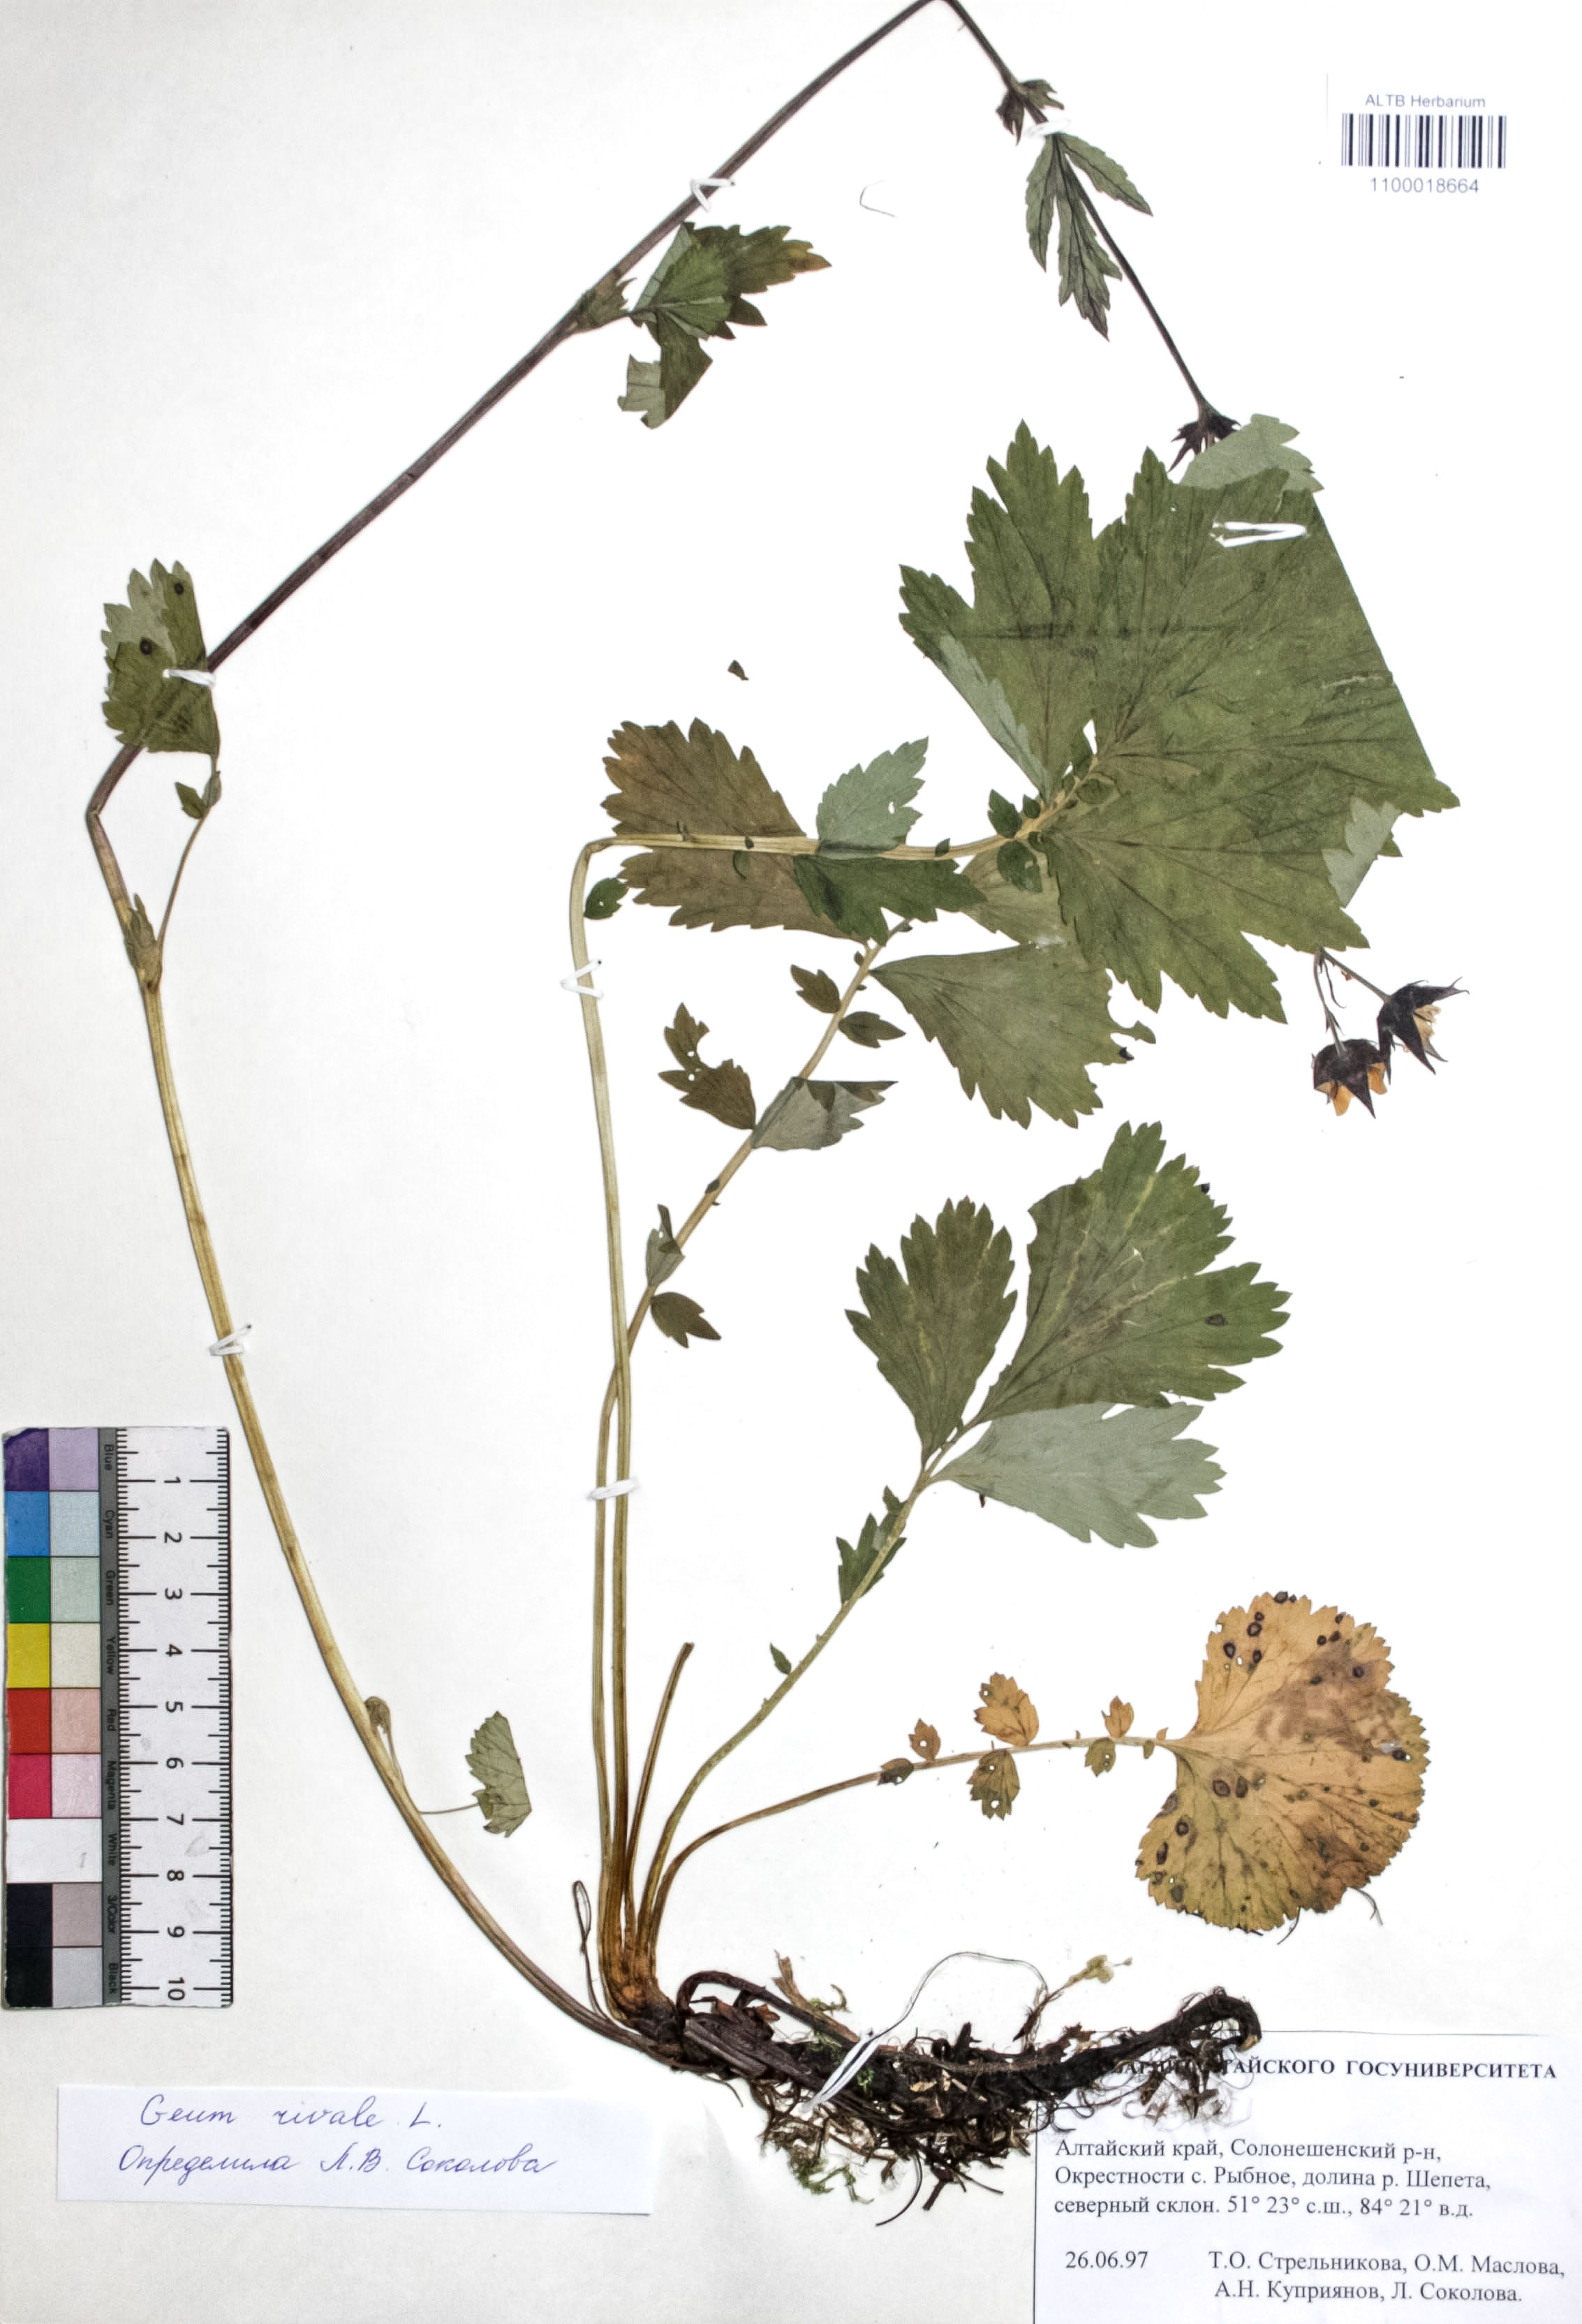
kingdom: Plantae
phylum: Tracheophyta
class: Magnoliopsida
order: Rosales
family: Rosaceae
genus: Geum
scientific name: Geum rivale
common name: Water avens
